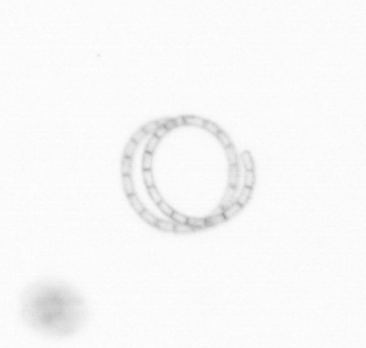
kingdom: Chromista
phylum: Ochrophyta
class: Bacillariophyceae
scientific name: Bacillariophyceae
